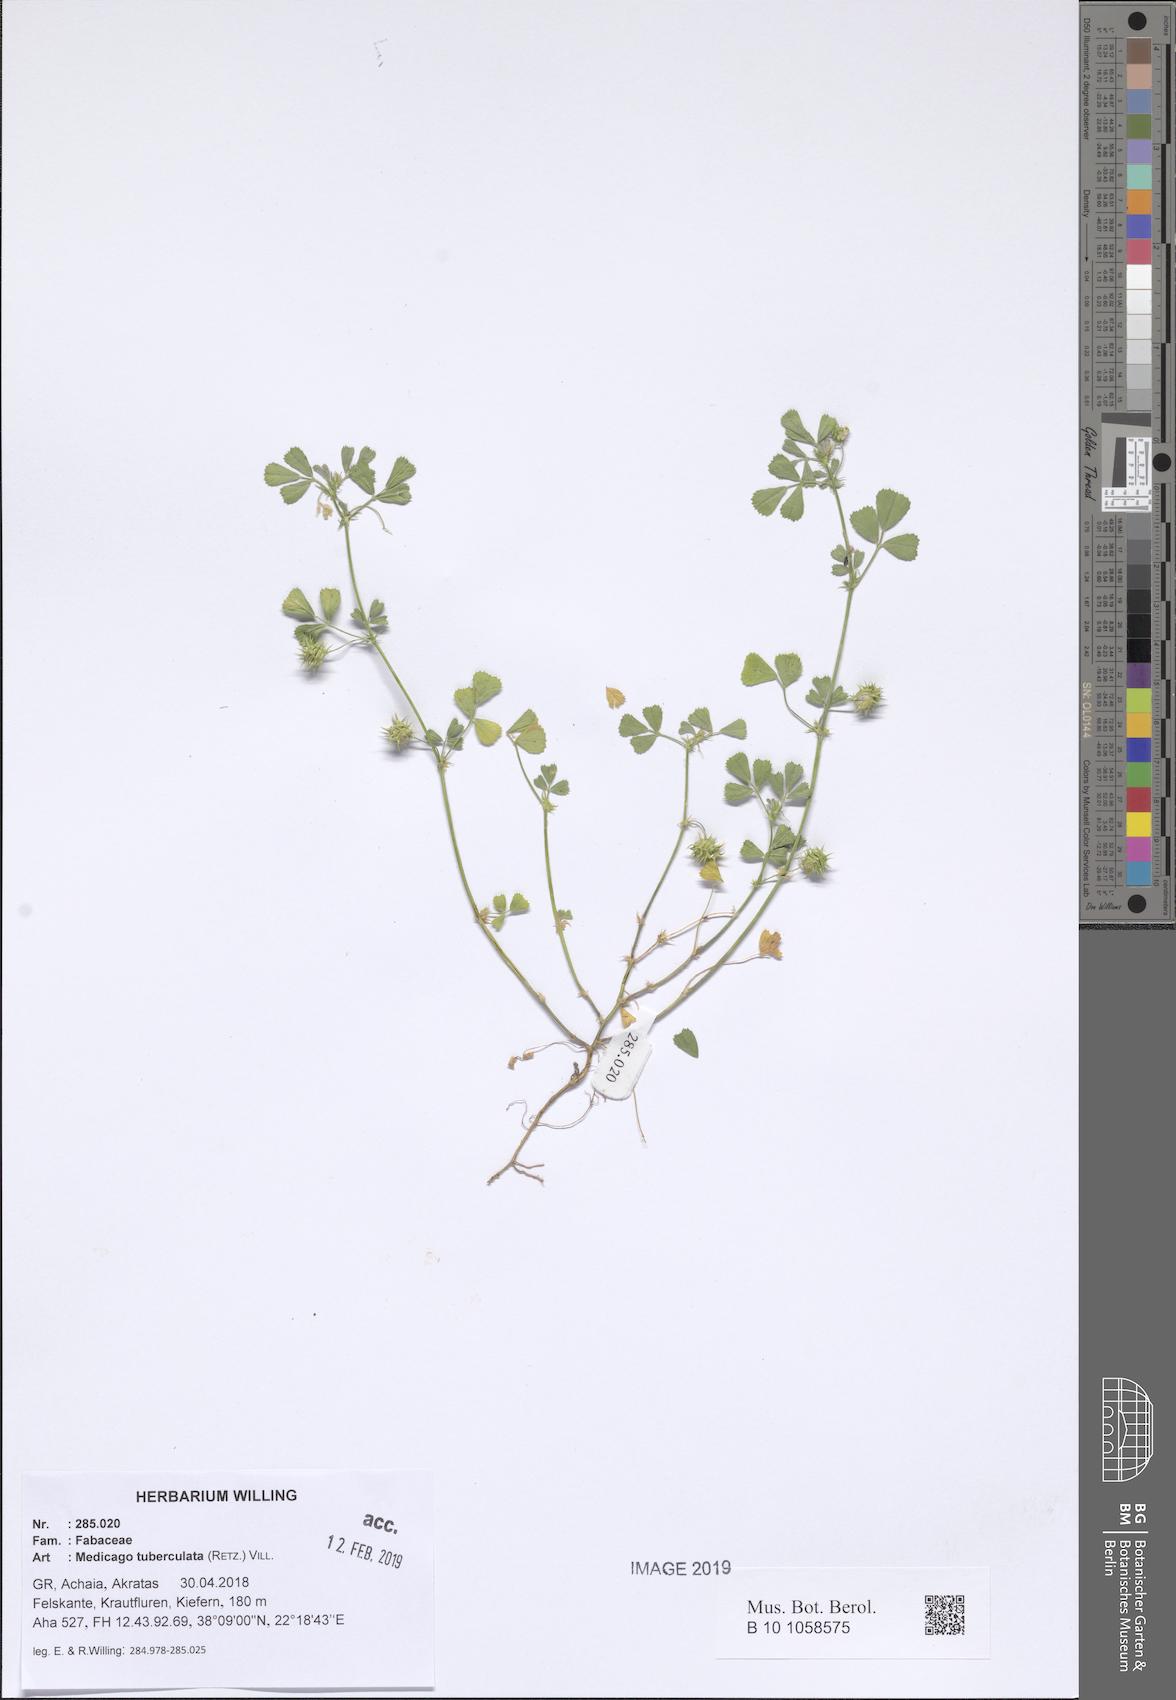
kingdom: Plantae
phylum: Tracheophyta
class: Magnoliopsida
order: Fabales
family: Fabaceae
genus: Medicago
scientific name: Medicago turbinata
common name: Southern medick
